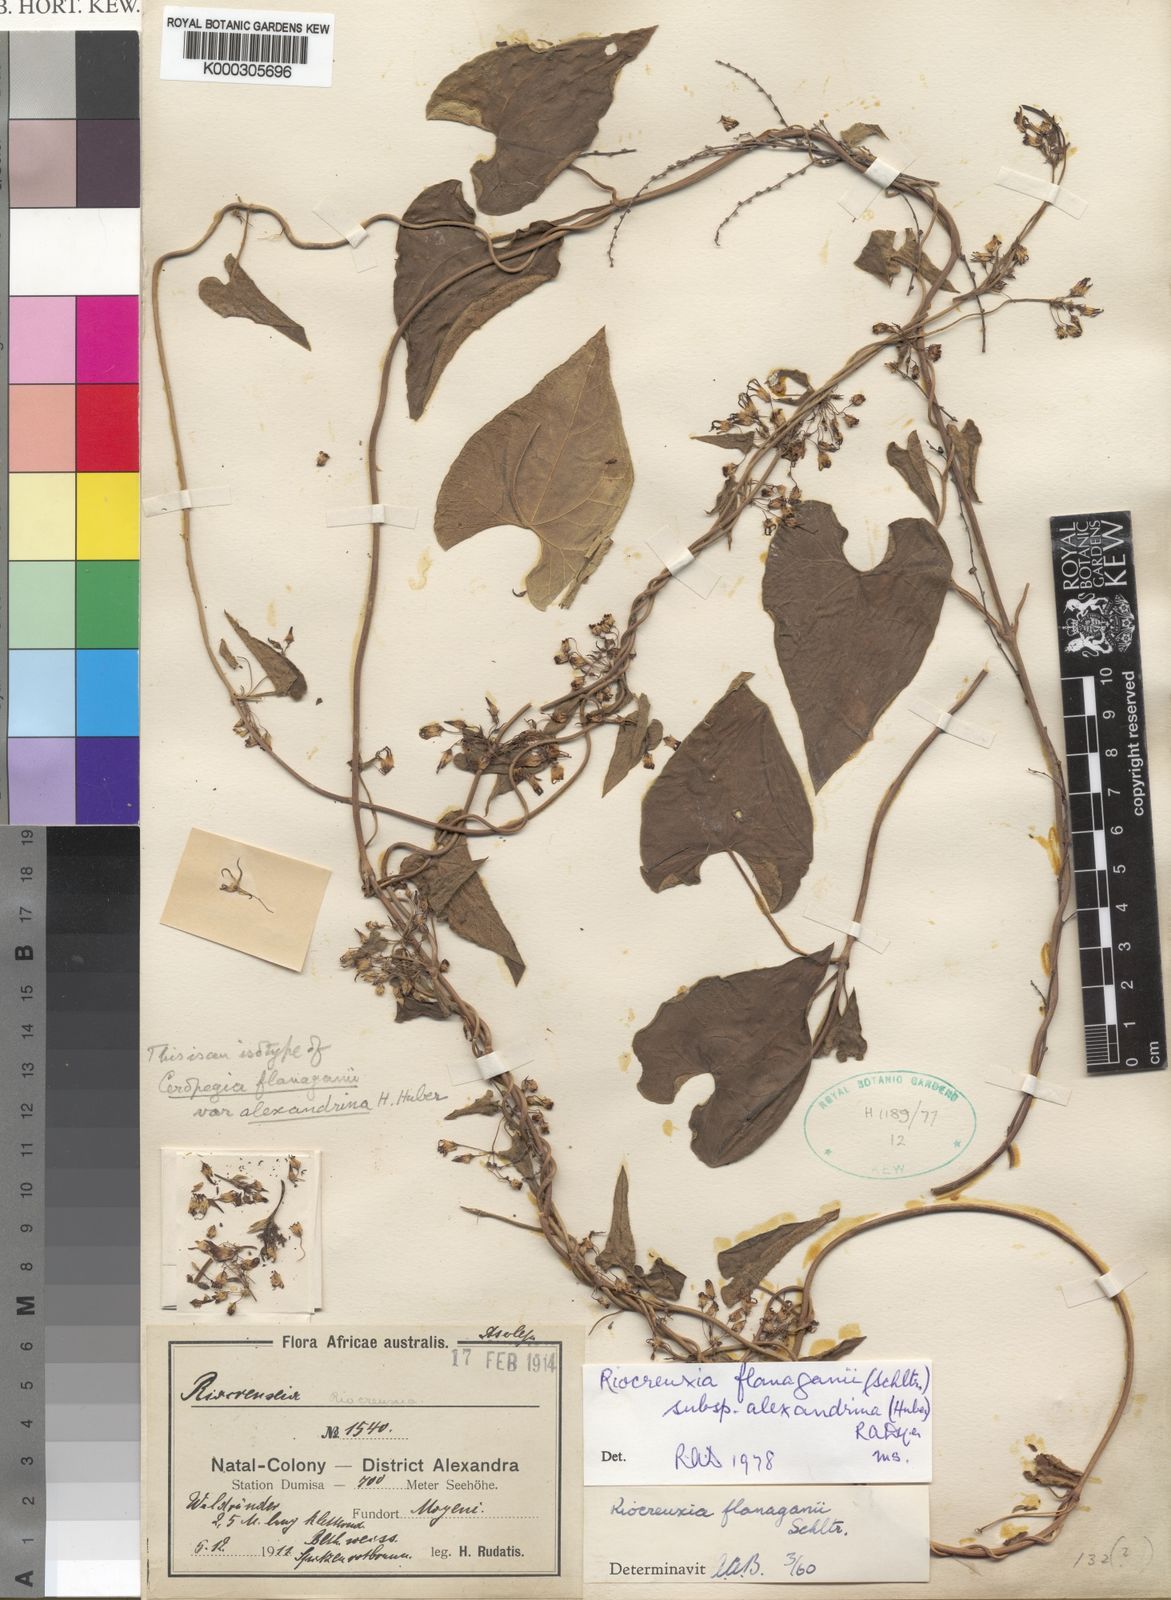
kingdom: Plantae
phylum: Tracheophyta
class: Magnoliopsida
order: Gentianales
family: Apocynaceae
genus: Riocreuxia
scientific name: Riocreuxia alexandrina
